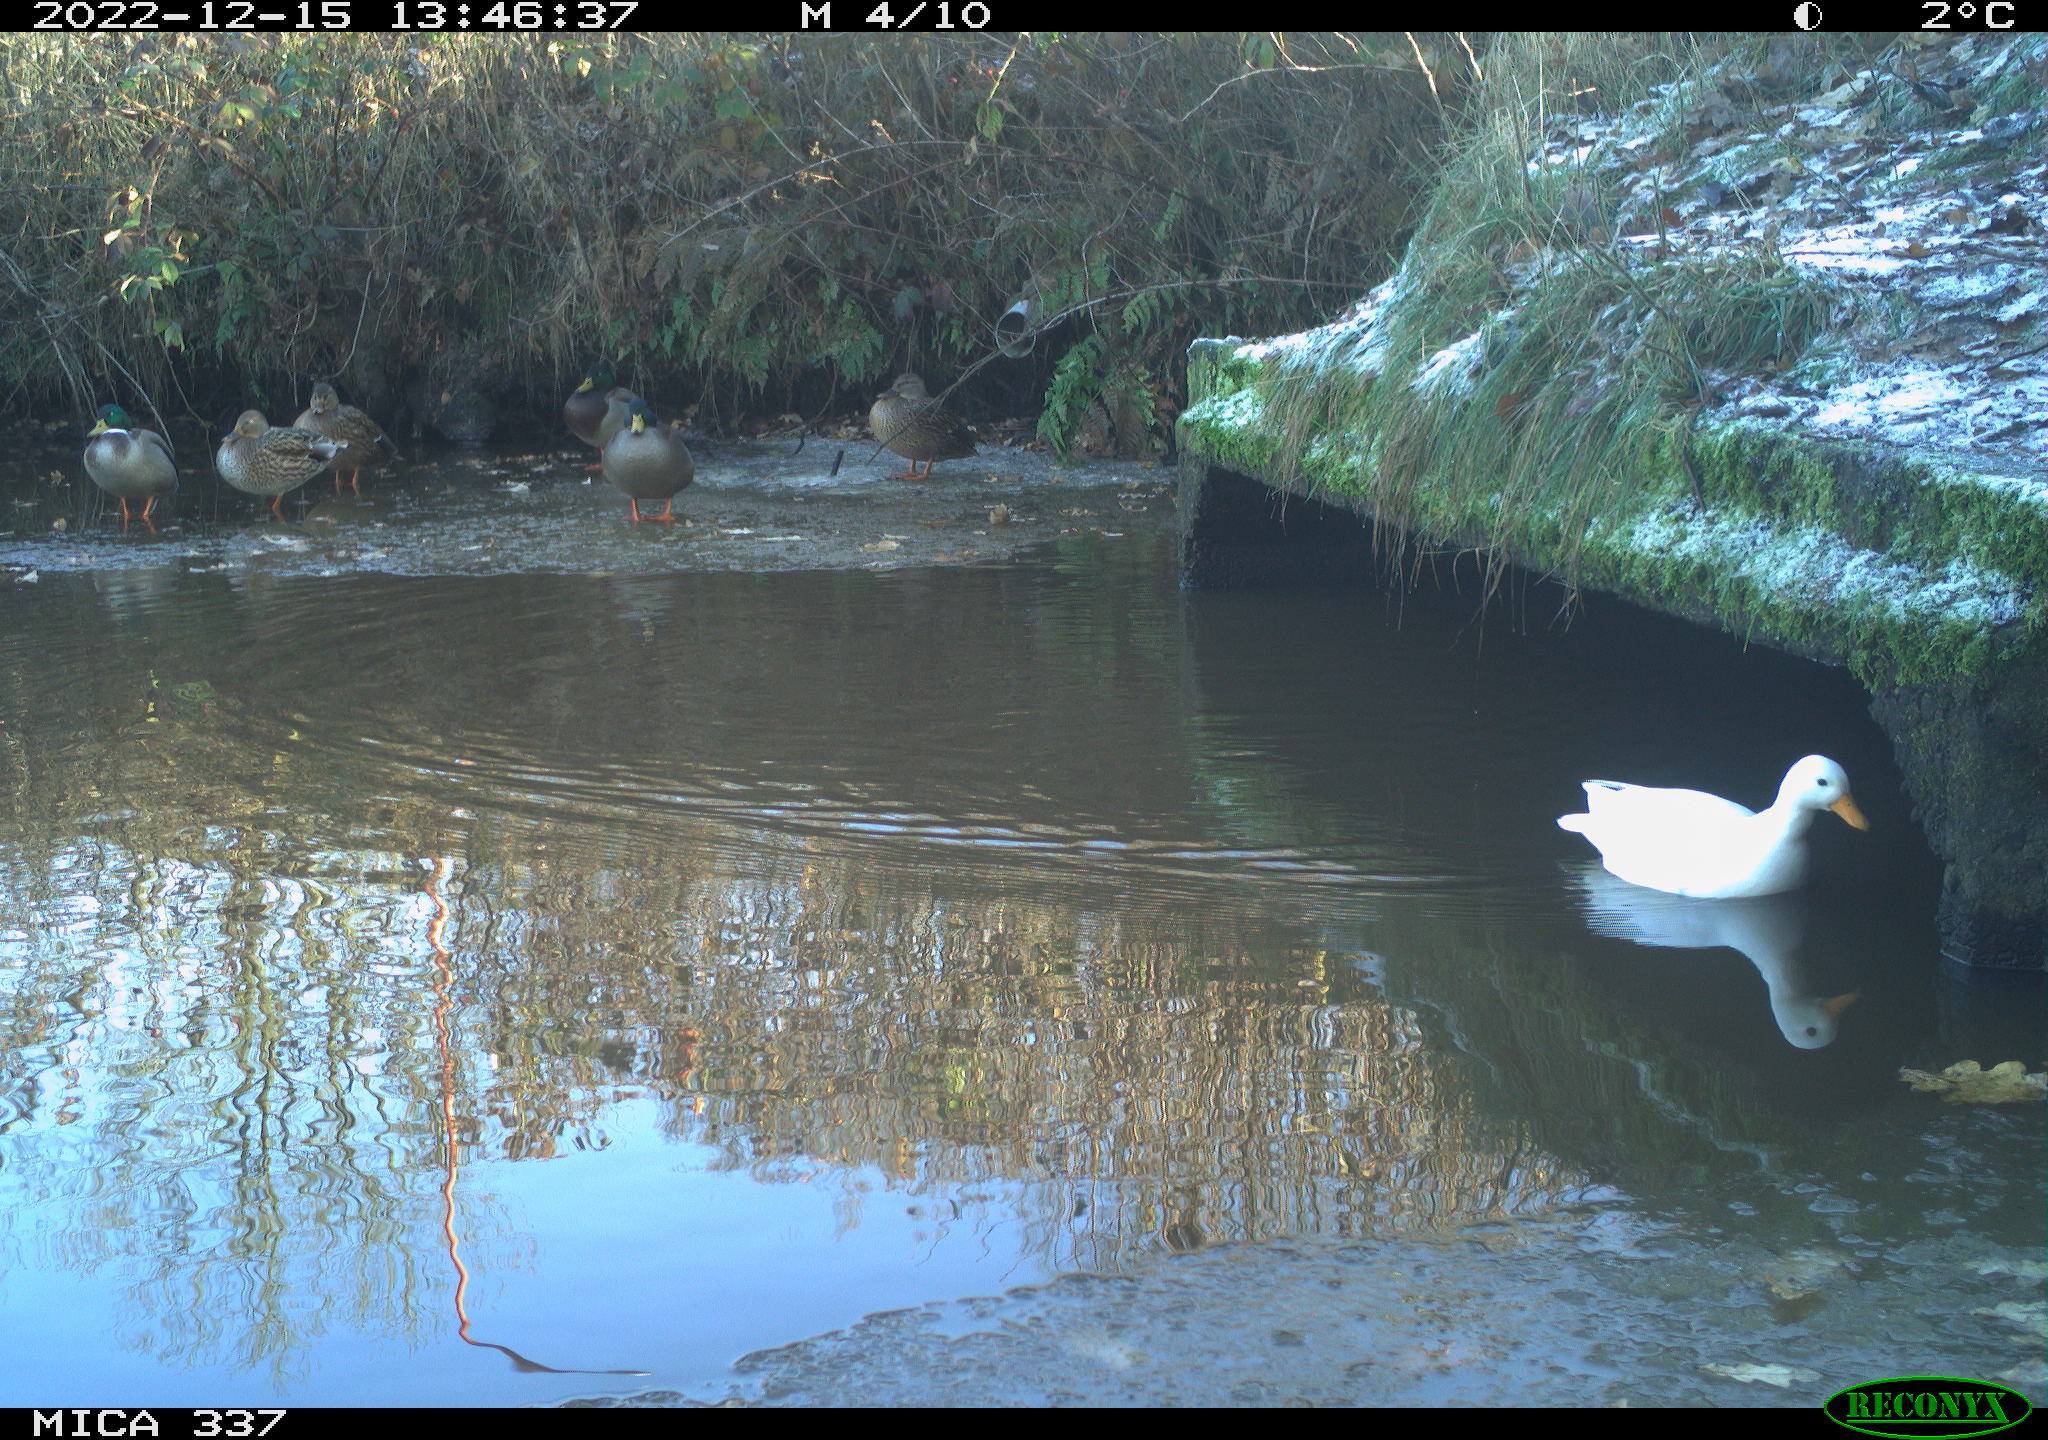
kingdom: Animalia
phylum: Chordata
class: Aves
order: Gruiformes
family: Rallidae
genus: Gallinula
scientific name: Gallinula chloropus
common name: Common moorhen
